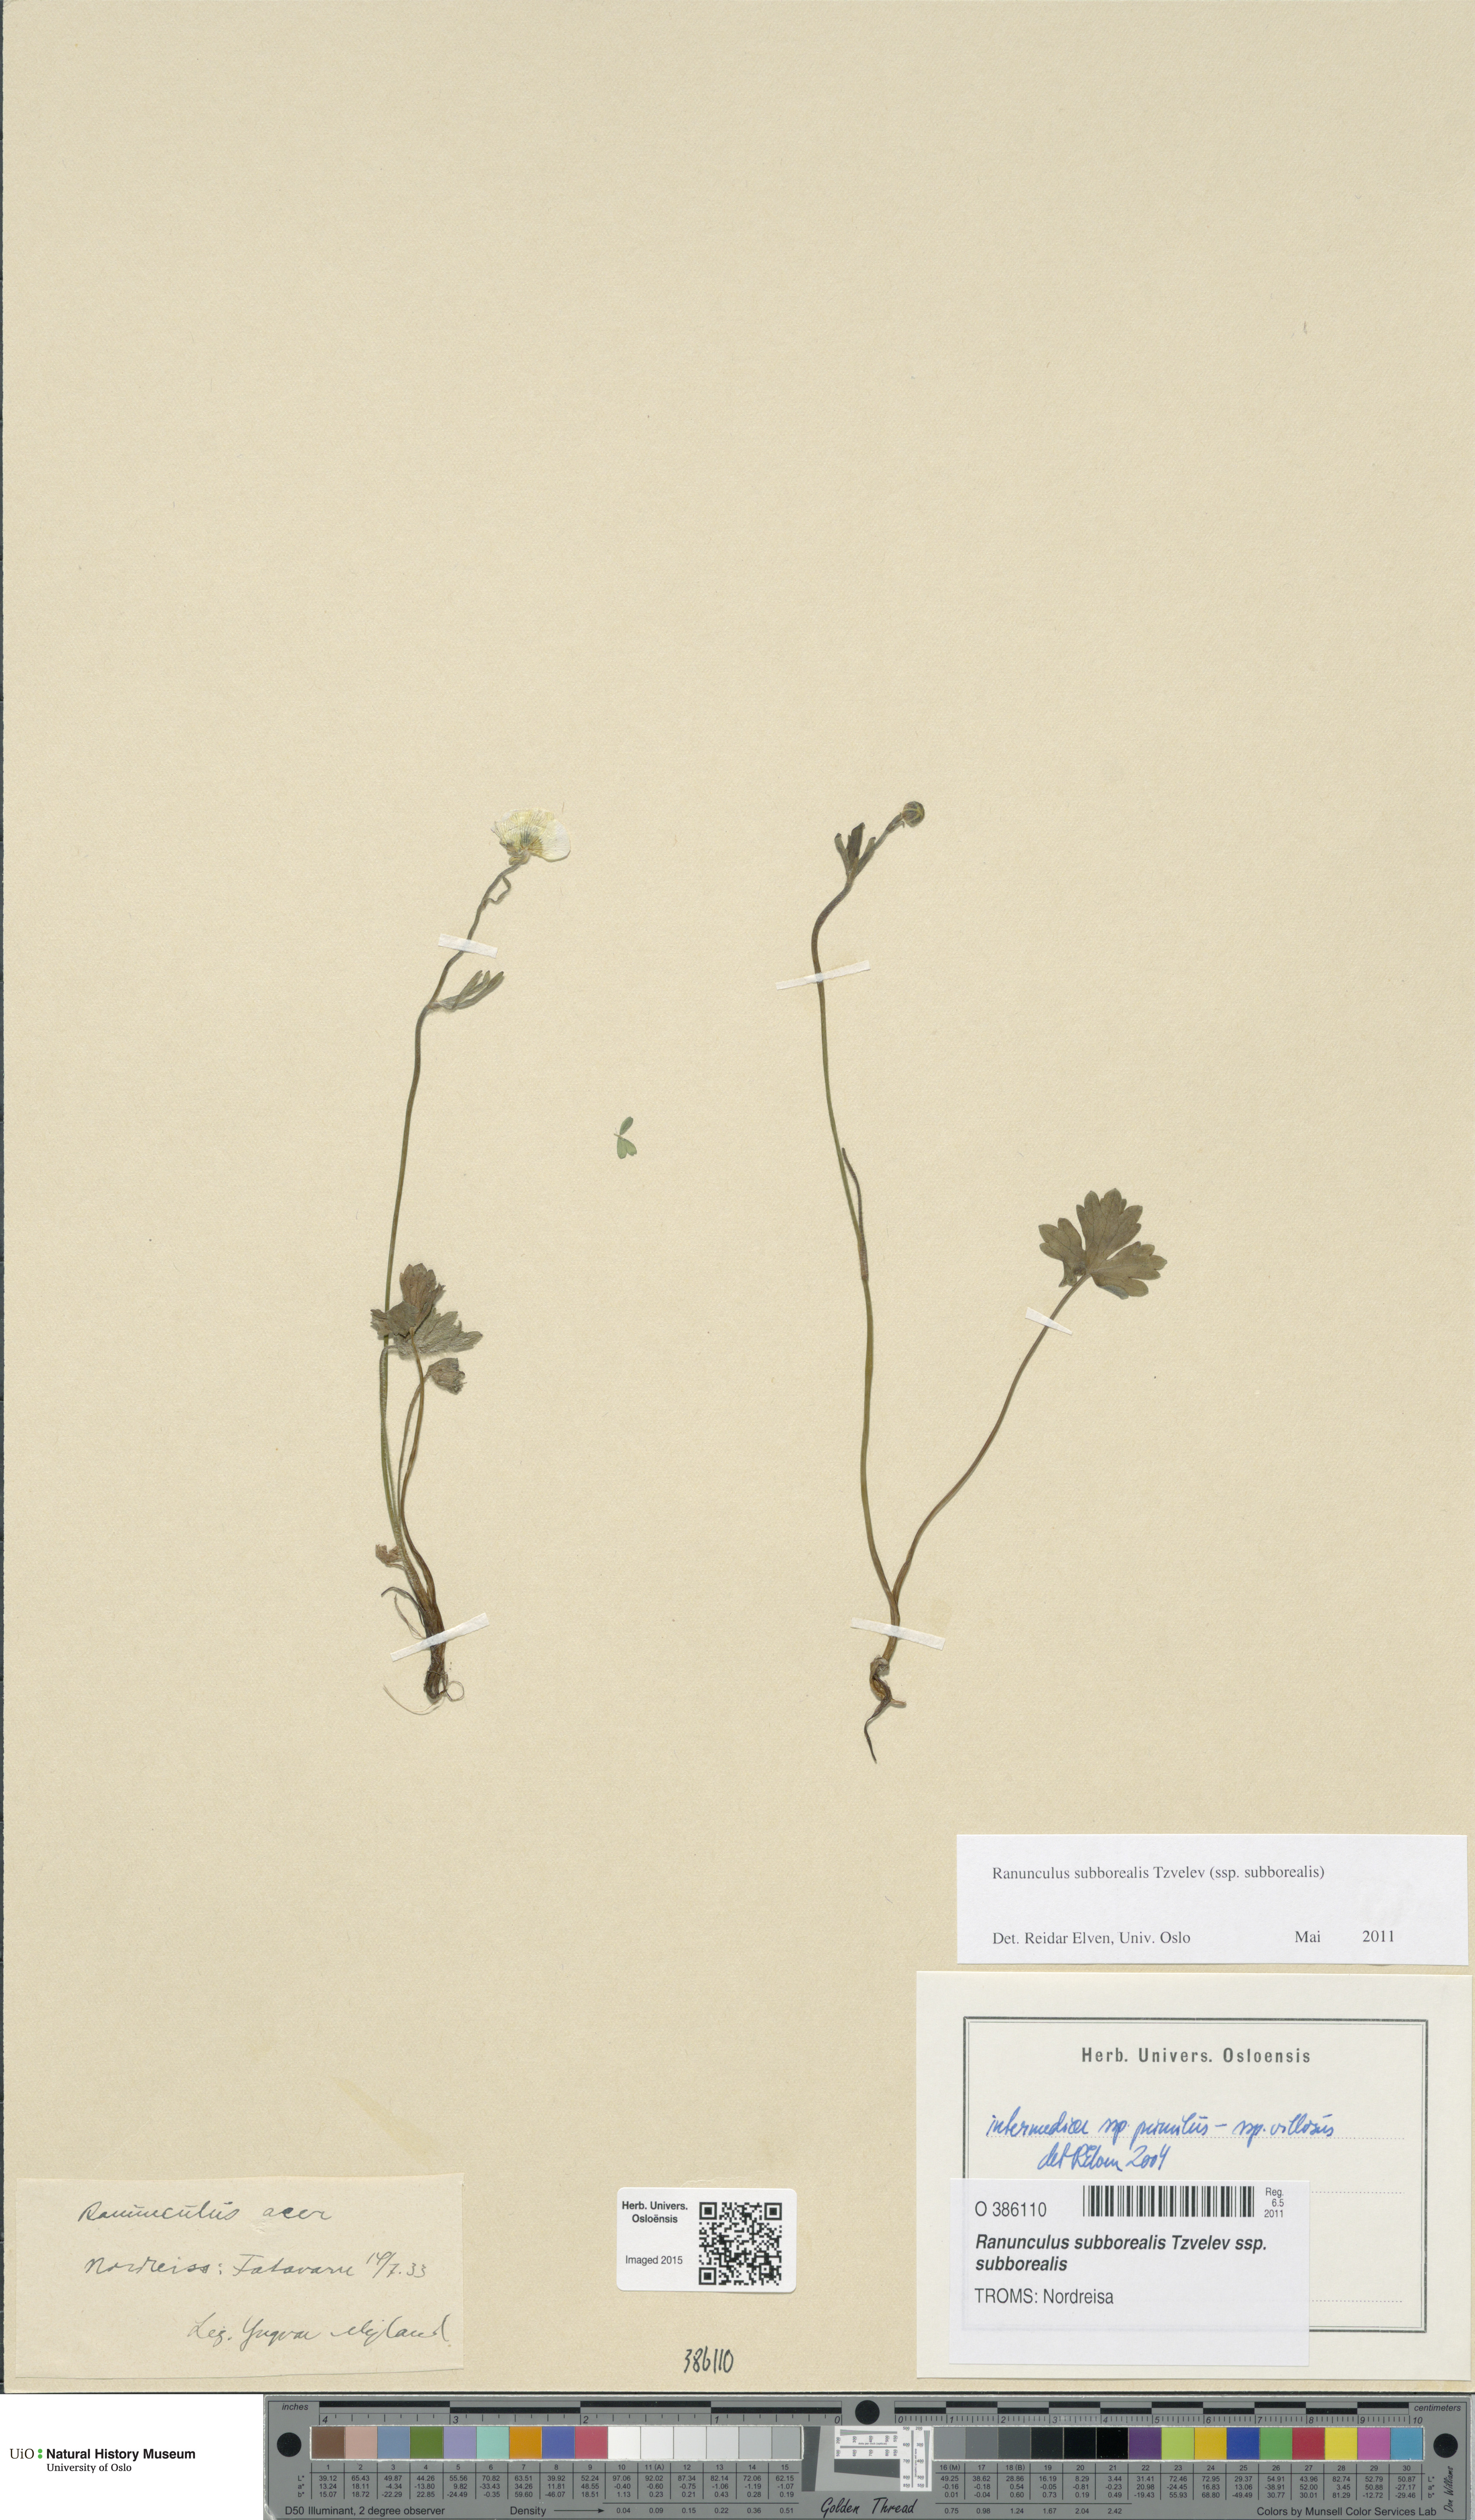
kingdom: Plantae
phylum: Tracheophyta
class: Magnoliopsida
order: Ranunculales
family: Ranunculaceae
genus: Ranunculus
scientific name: Ranunculus propinquus
